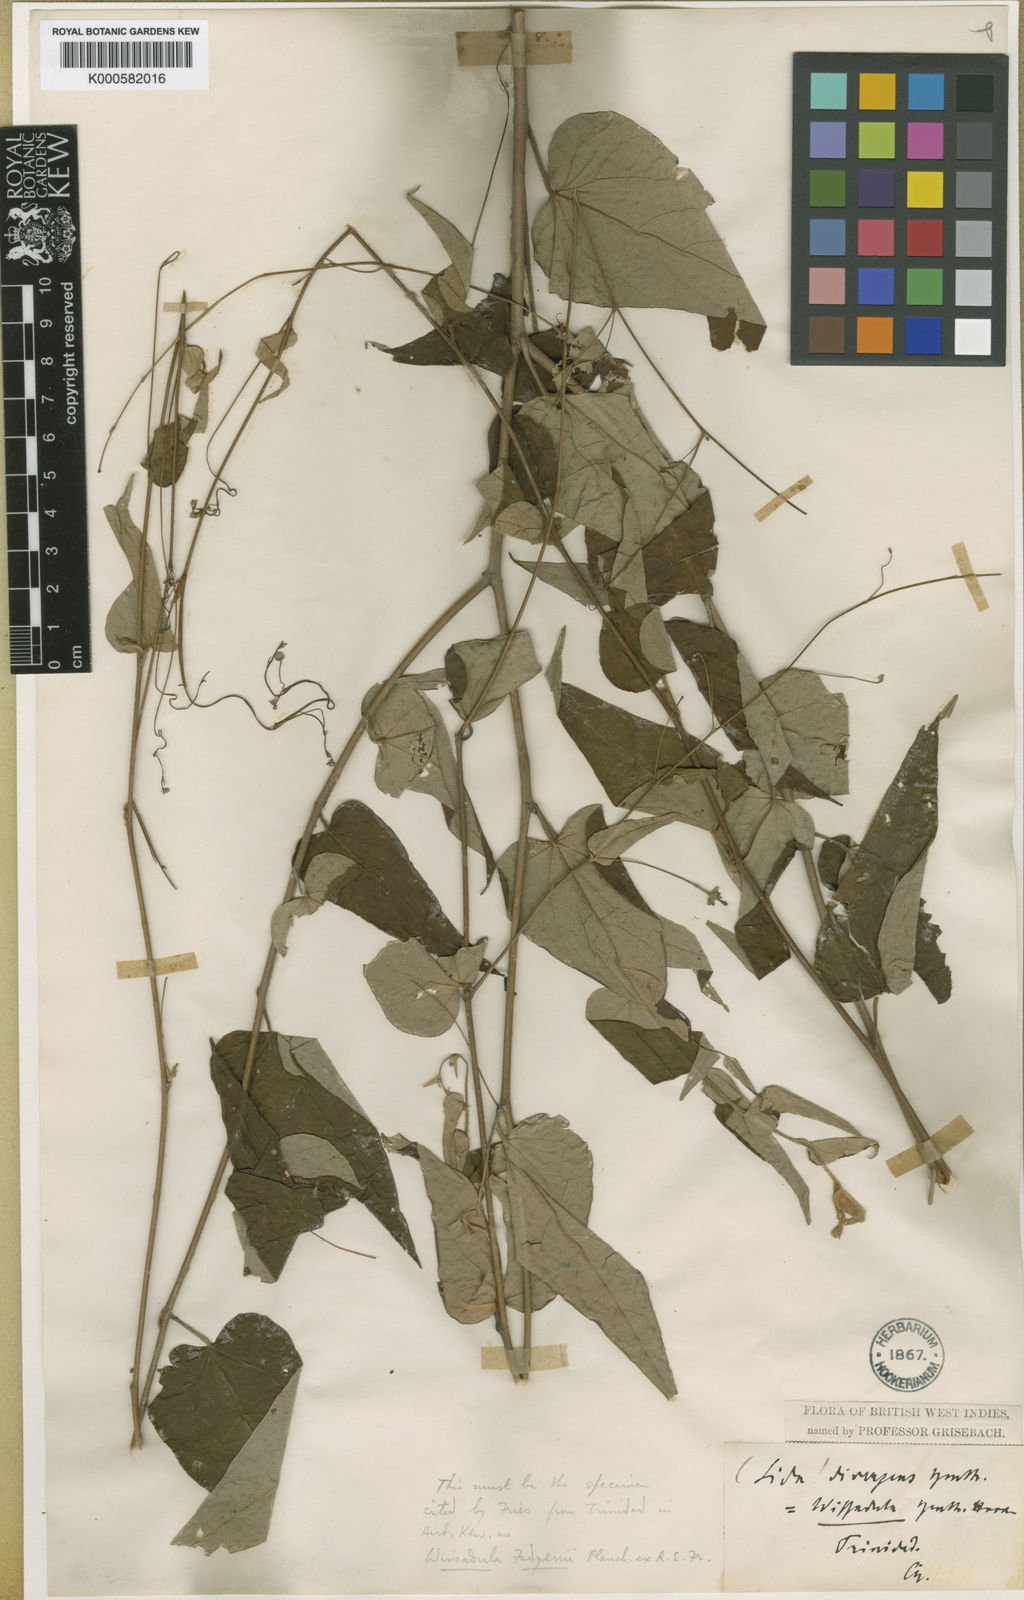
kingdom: Plantae
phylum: Tracheophyta
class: Magnoliopsida
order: Malvales
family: Malvaceae
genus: Wissadula
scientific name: Wissadula fadyenii
